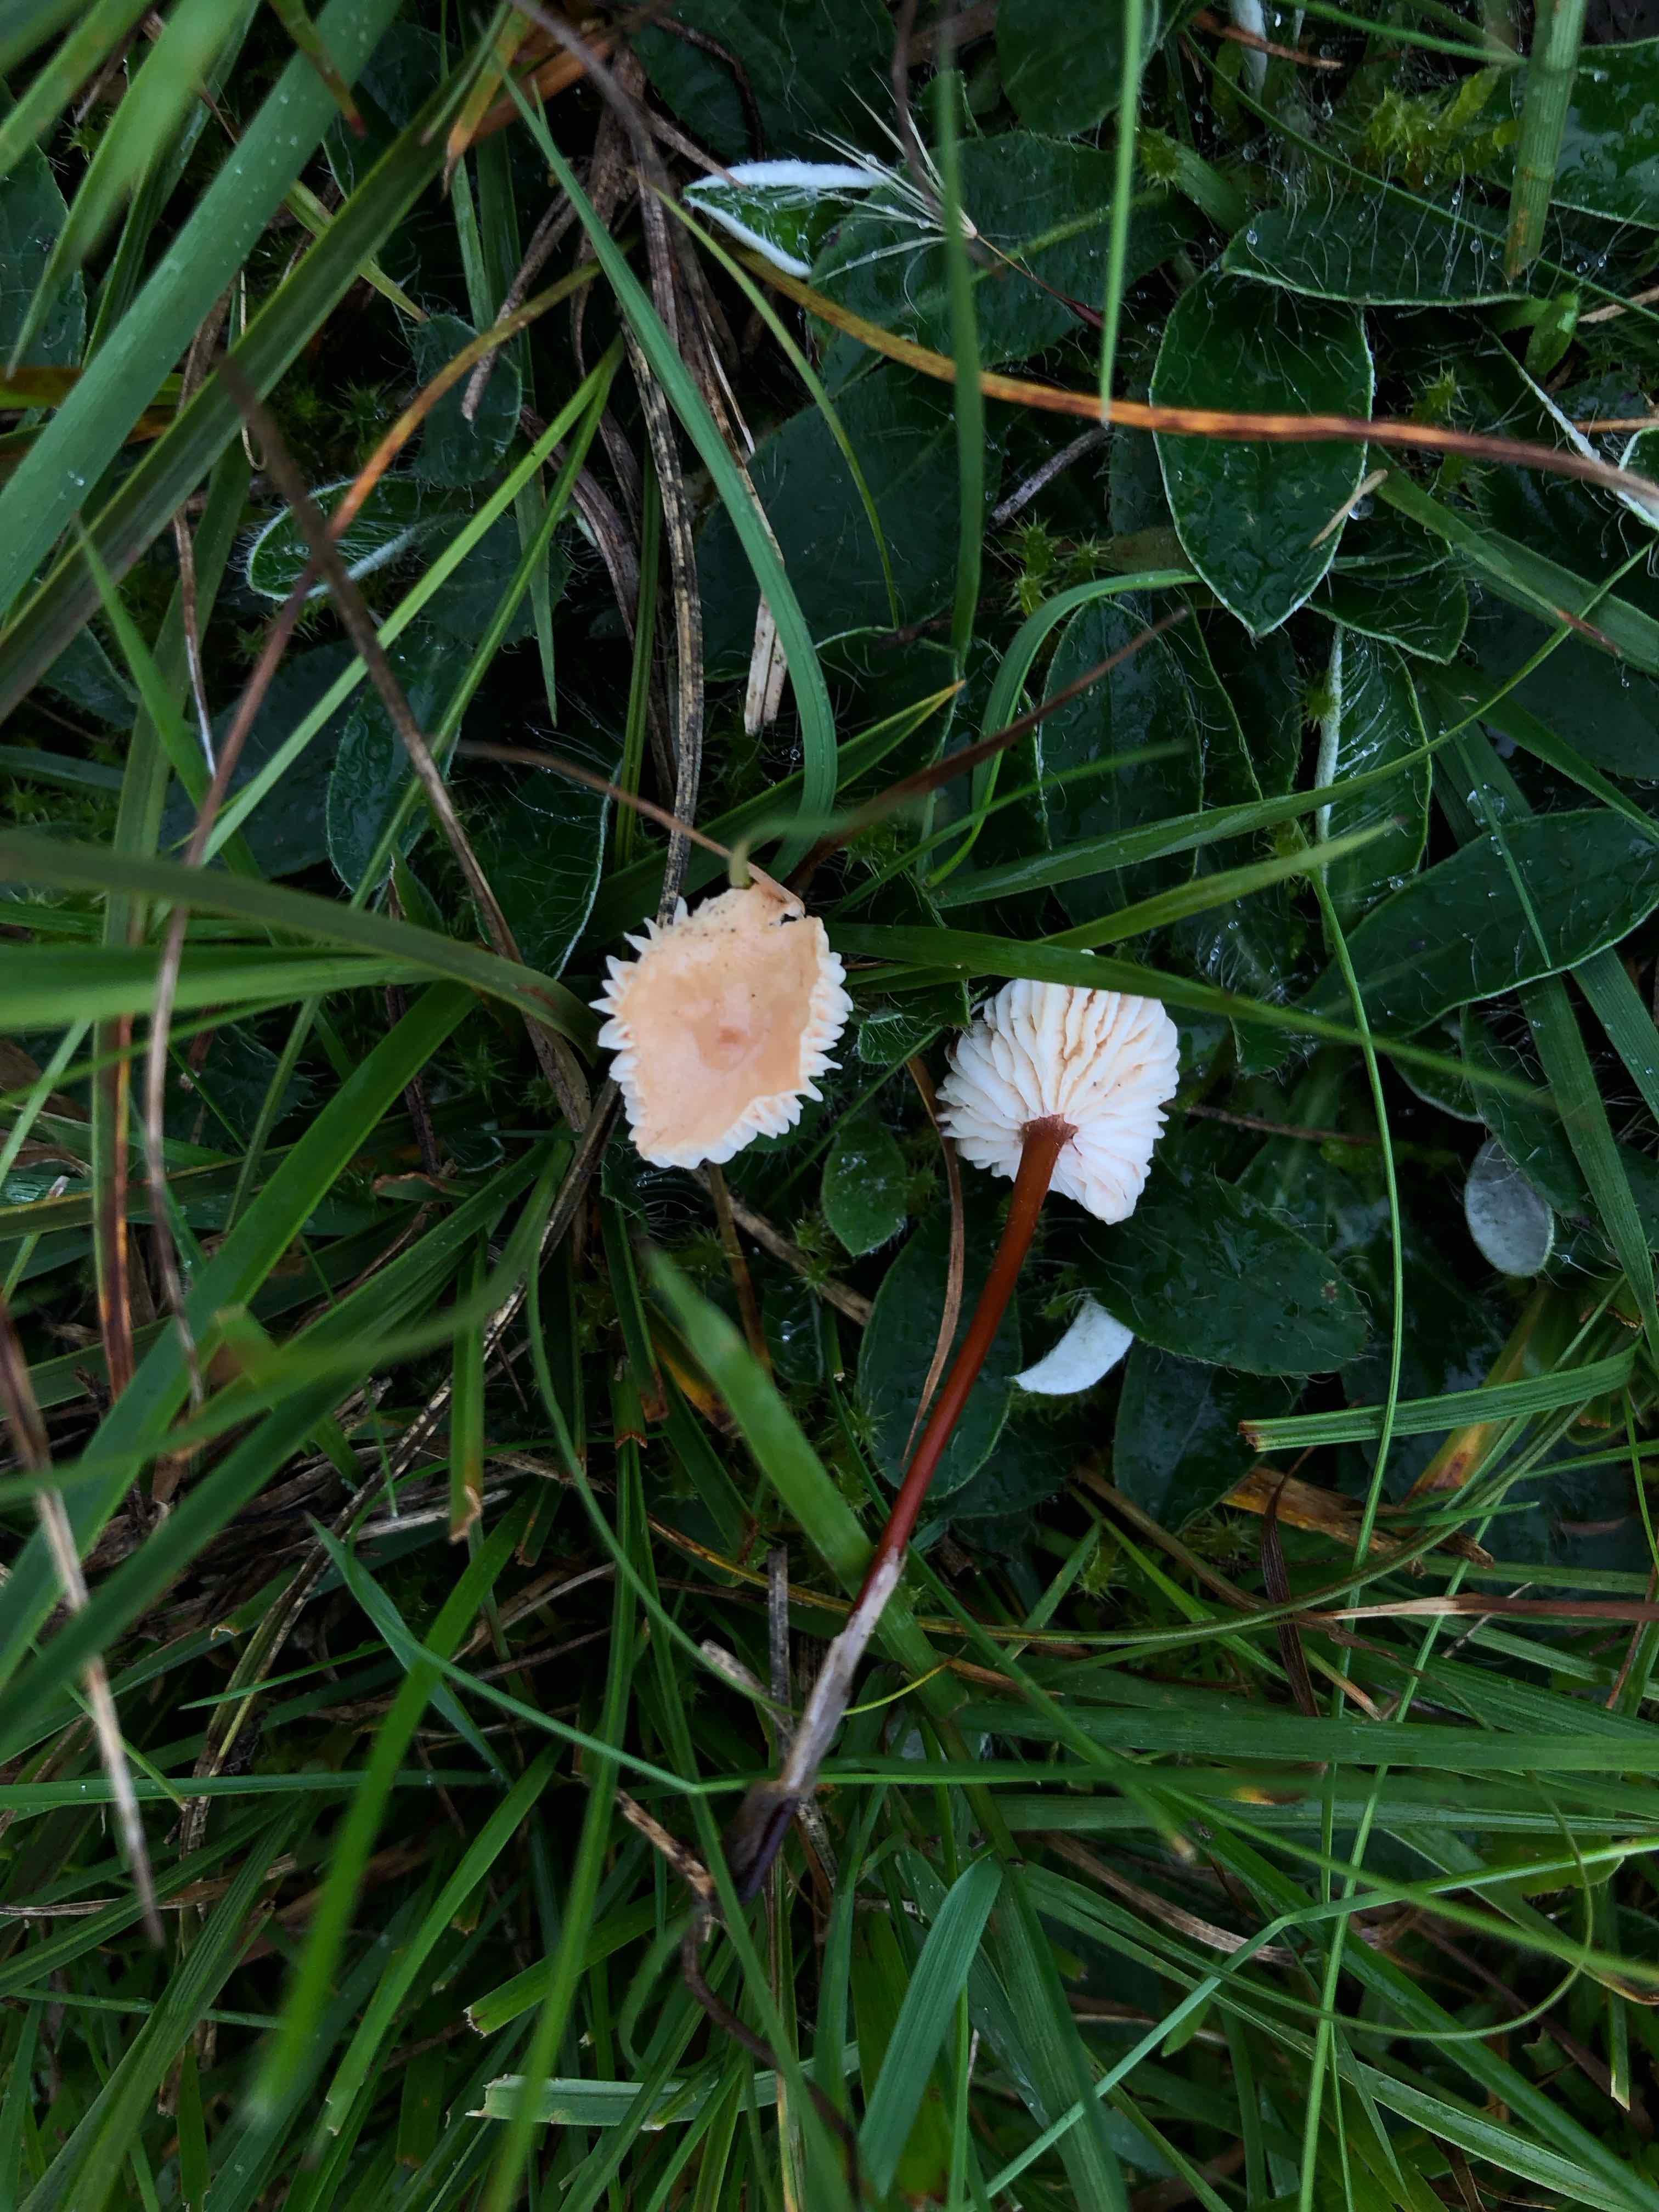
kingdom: Fungi
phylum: Basidiomycota
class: Agaricomycetes
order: Agaricales
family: Omphalotaceae
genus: Mycetinis
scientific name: Mycetinis scorodonius
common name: lille løghat
